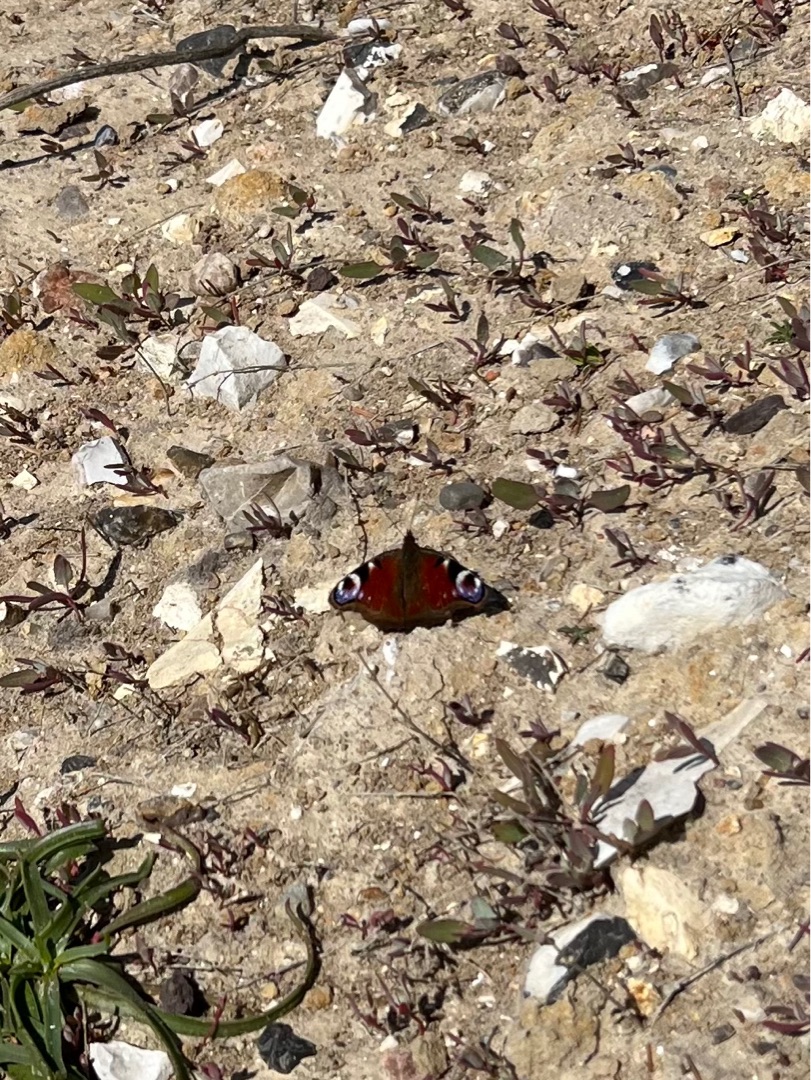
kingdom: Animalia
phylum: Arthropoda
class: Insecta
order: Lepidoptera
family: Nymphalidae
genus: Aglais
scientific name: Aglais io
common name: Dagpåfugleøje
